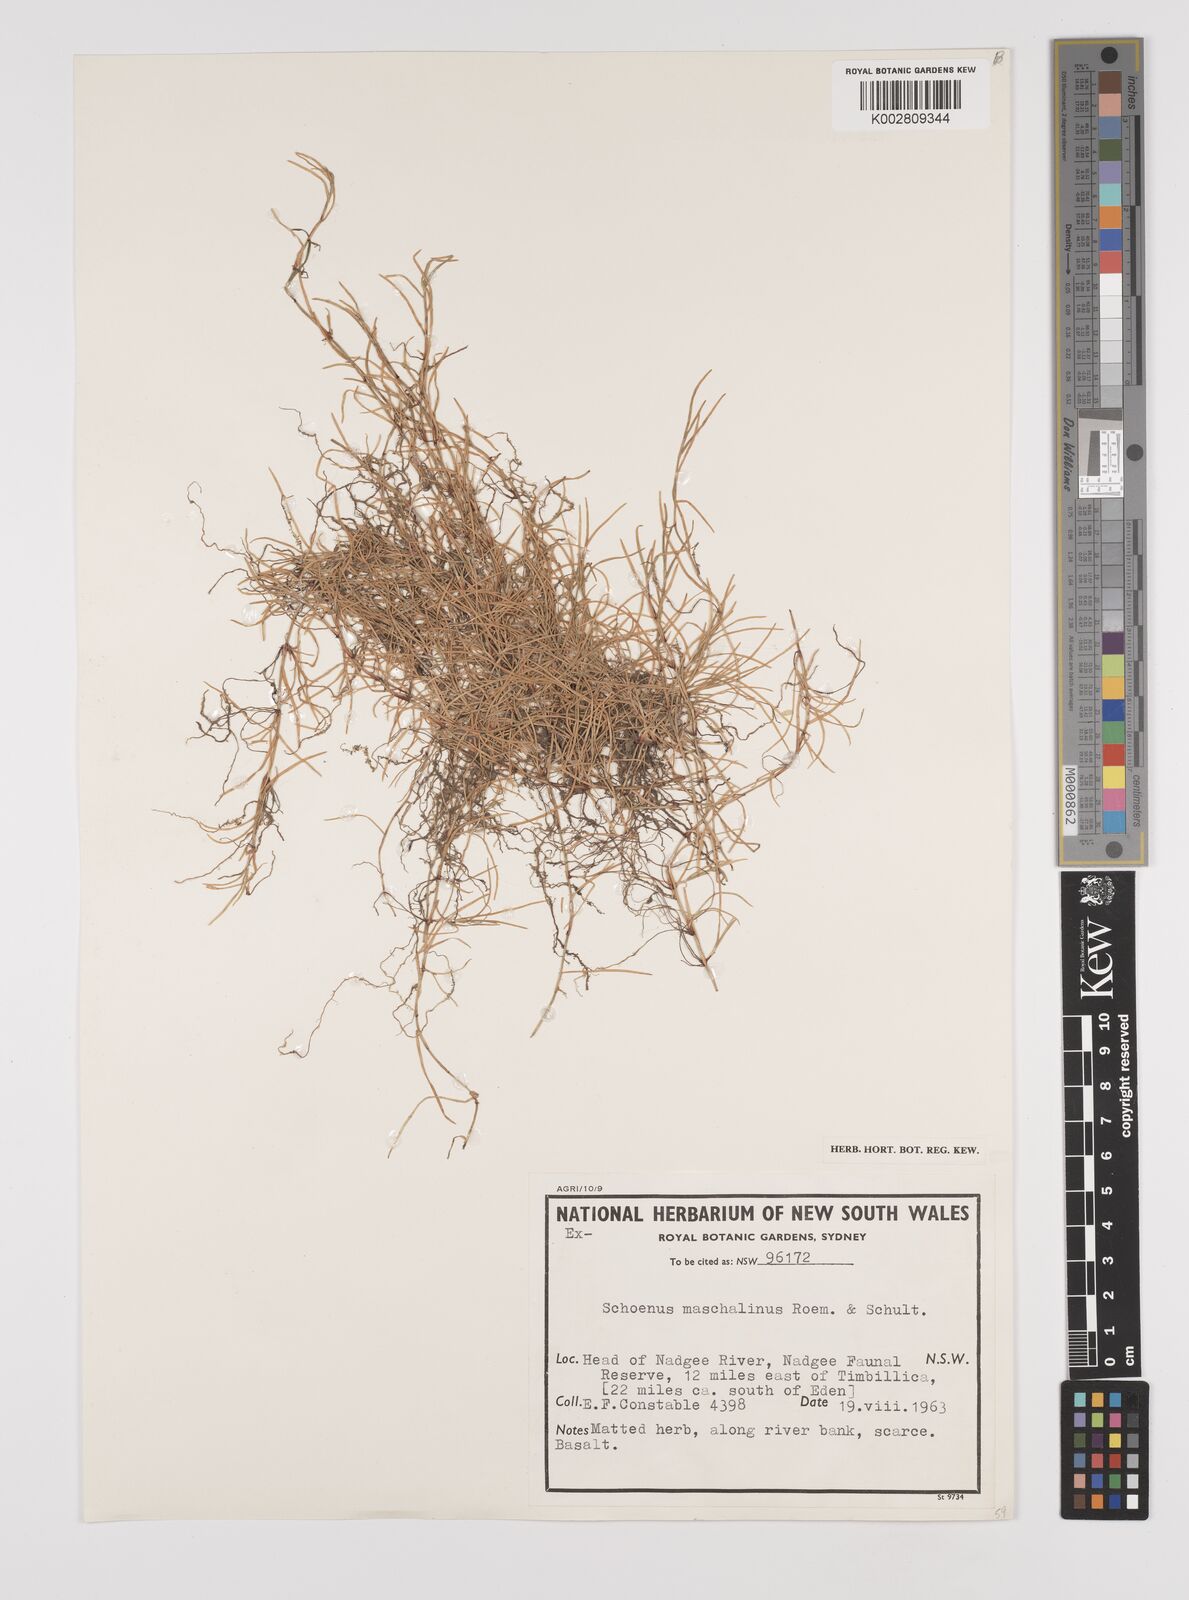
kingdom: Plantae
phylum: Tracheophyta
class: Liliopsida
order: Poales
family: Cyperaceae
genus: Schoenus
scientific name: Schoenus maschalinus
